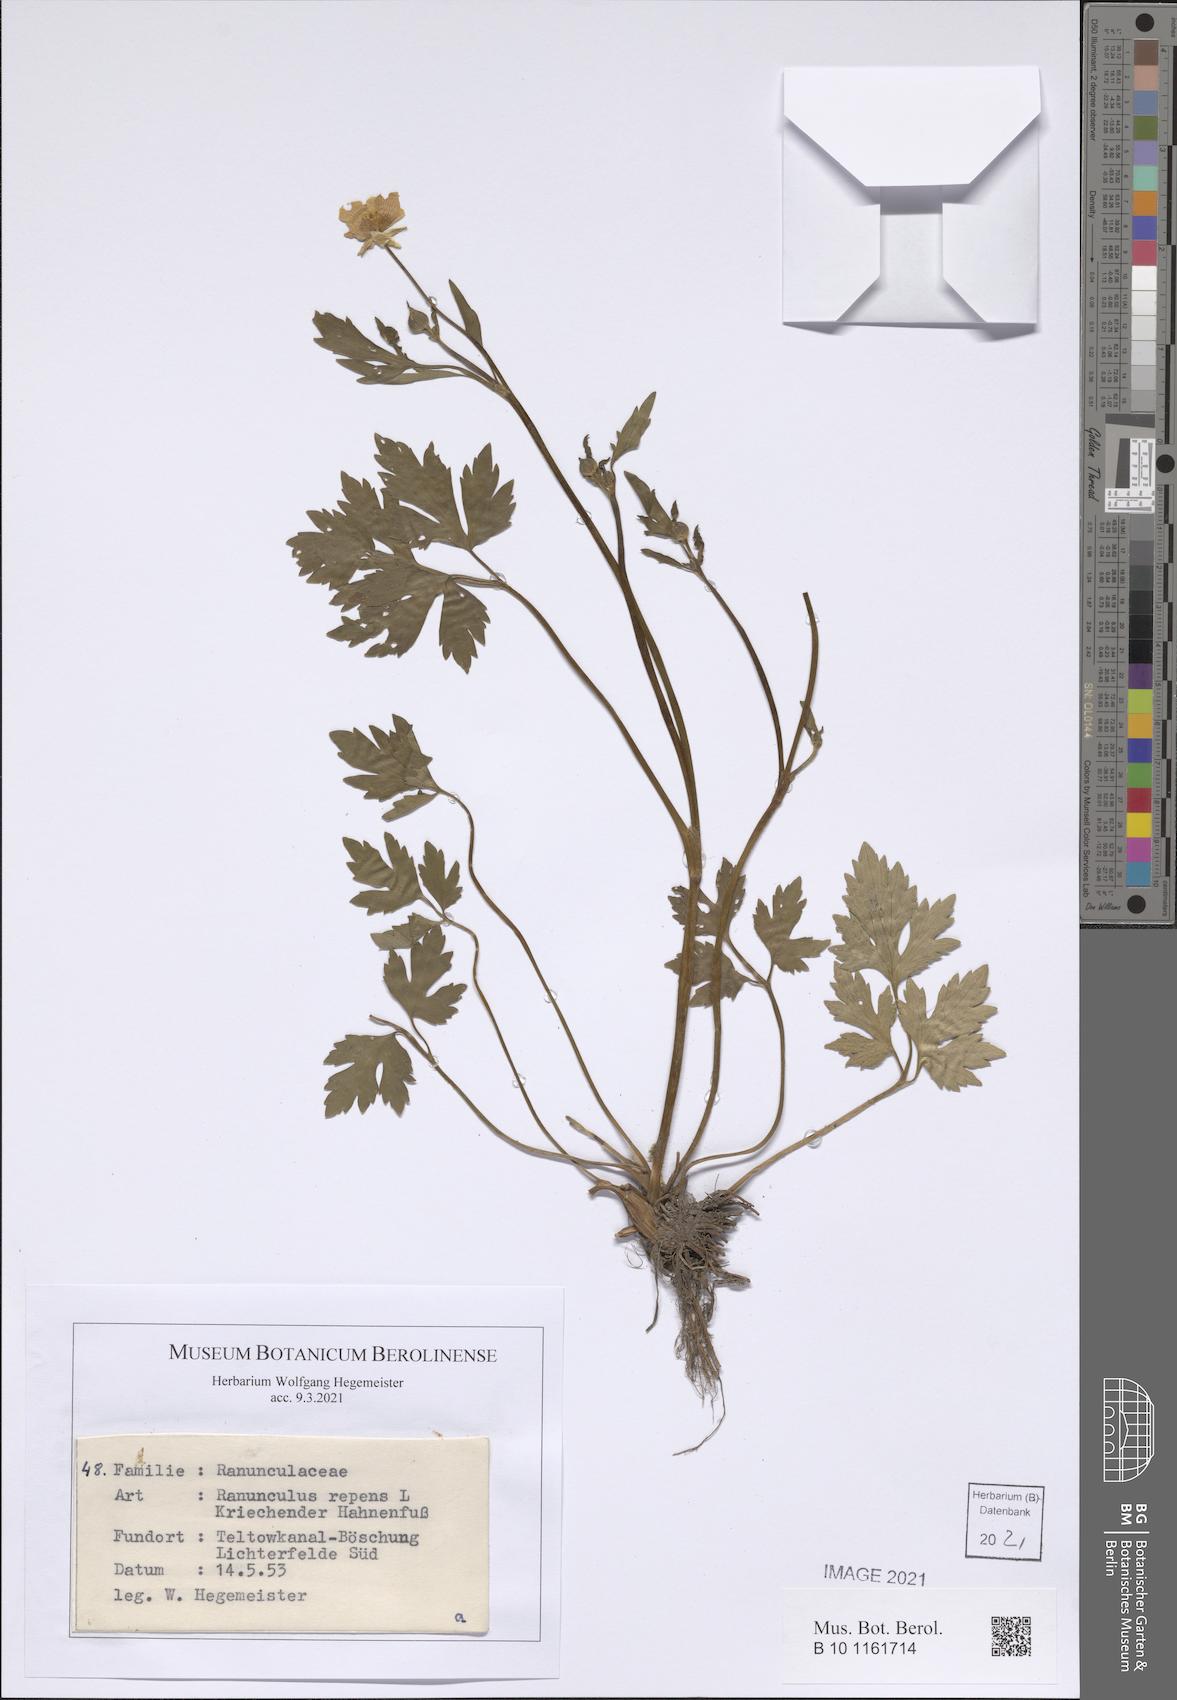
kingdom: Plantae
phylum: Tracheophyta
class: Magnoliopsida
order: Ranunculales
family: Ranunculaceae
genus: Ranunculus
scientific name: Ranunculus repens
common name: Creeping buttercup
